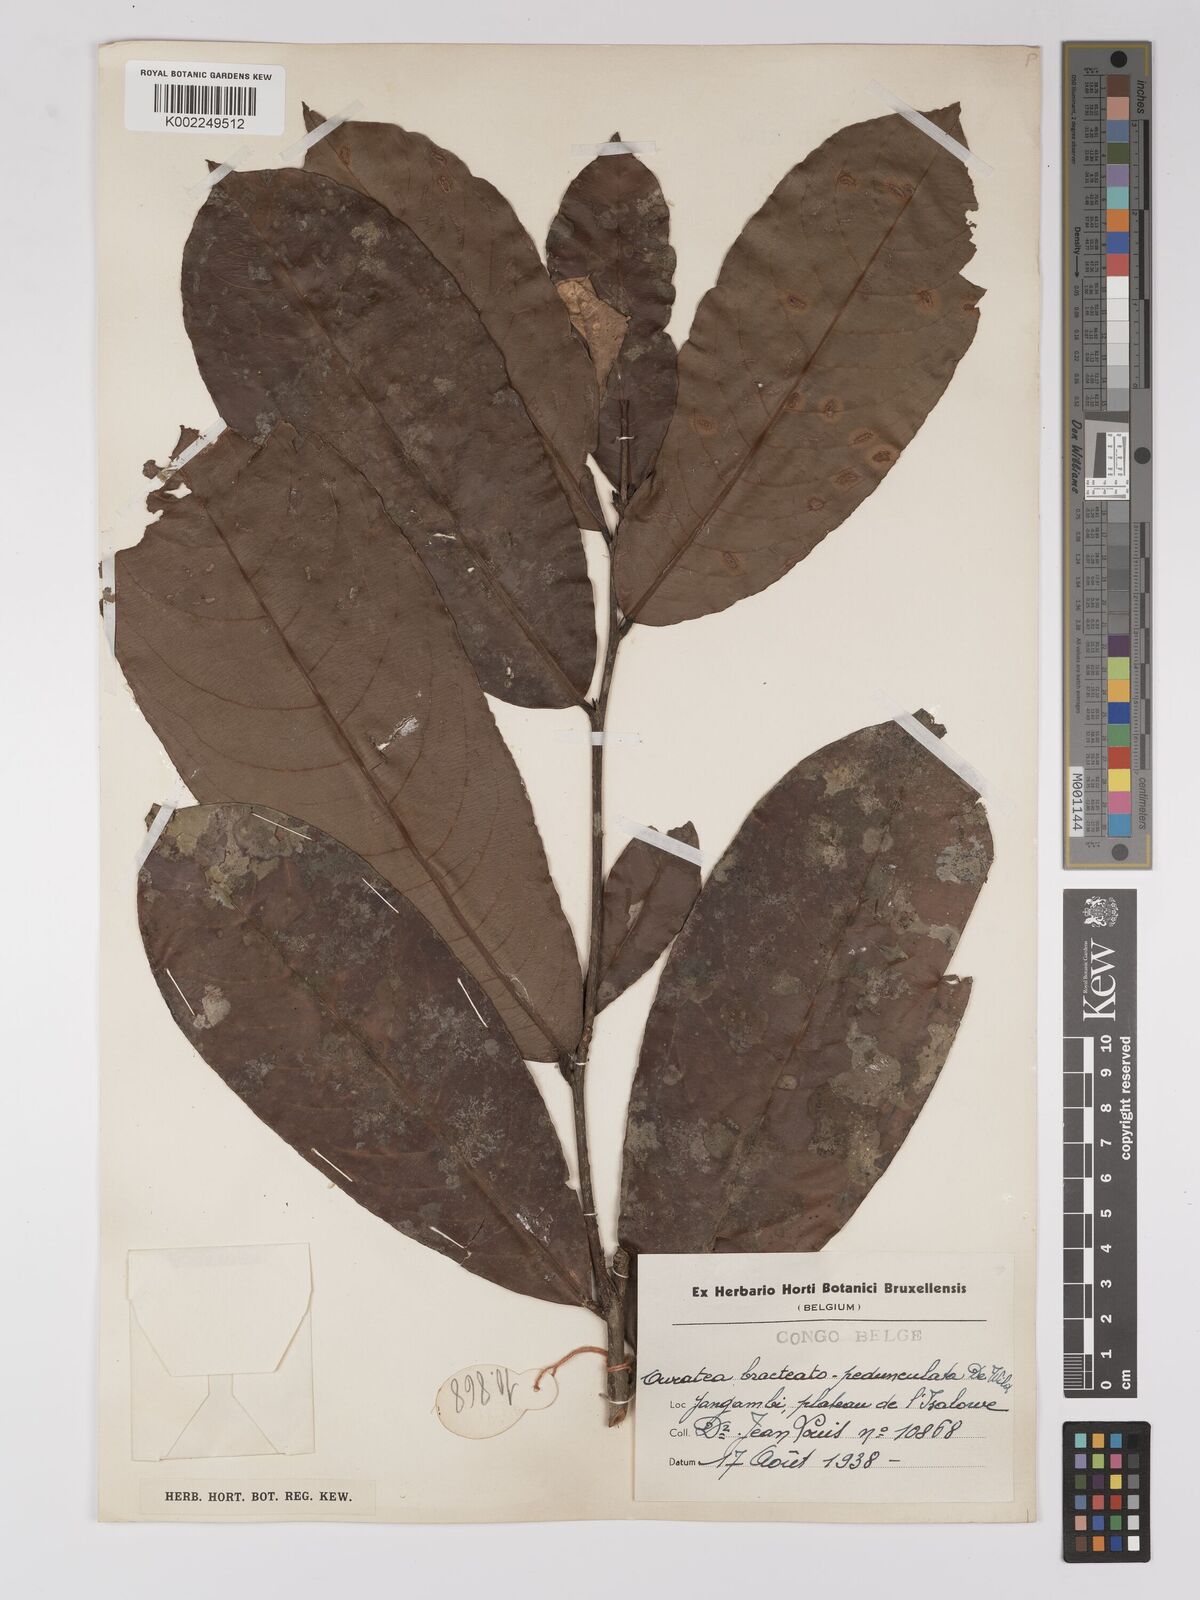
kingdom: Plantae
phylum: Tracheophyta
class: Magnoliopsida
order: Malpighiales
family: Ochnaceae
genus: Campylospermum
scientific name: Campylospermum laxiflorum
